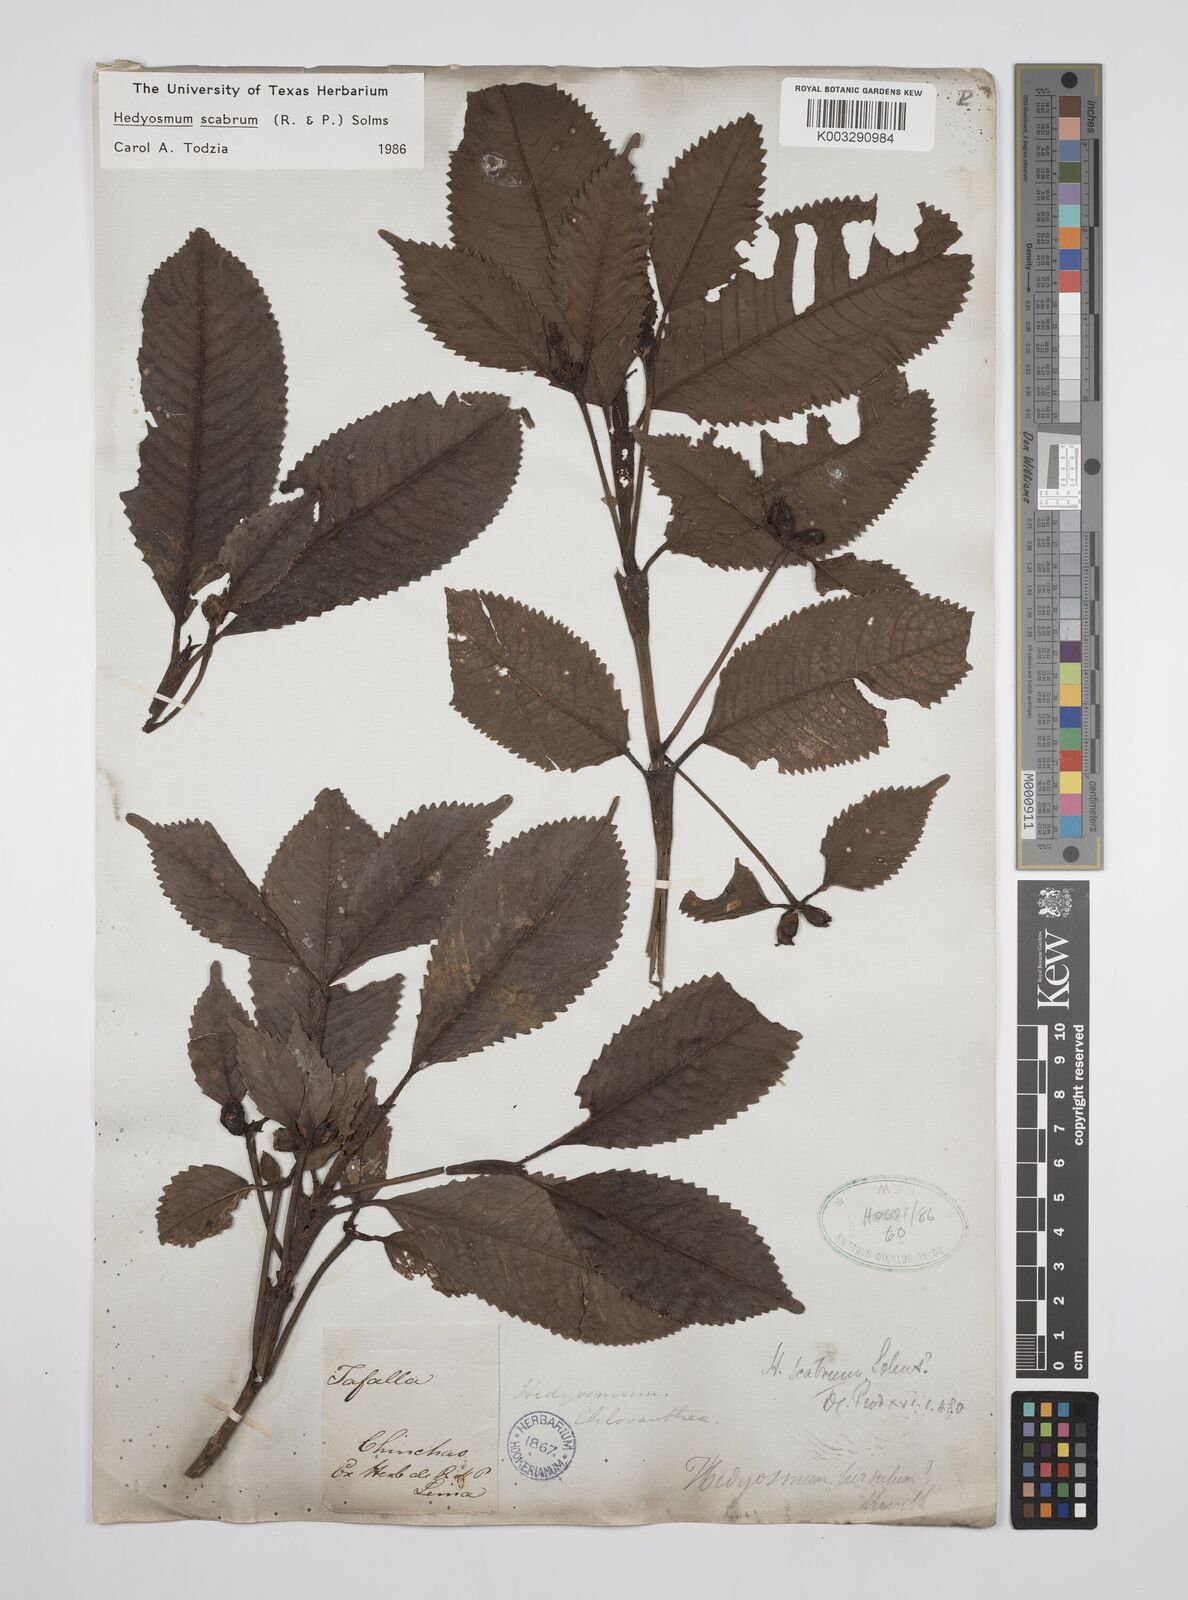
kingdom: Plantae
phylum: Tracheophyta
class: Magnoliopsida
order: Chloranthales
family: Chloranthaceae
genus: Hedyosmum
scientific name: Hedyosmum scabrum
